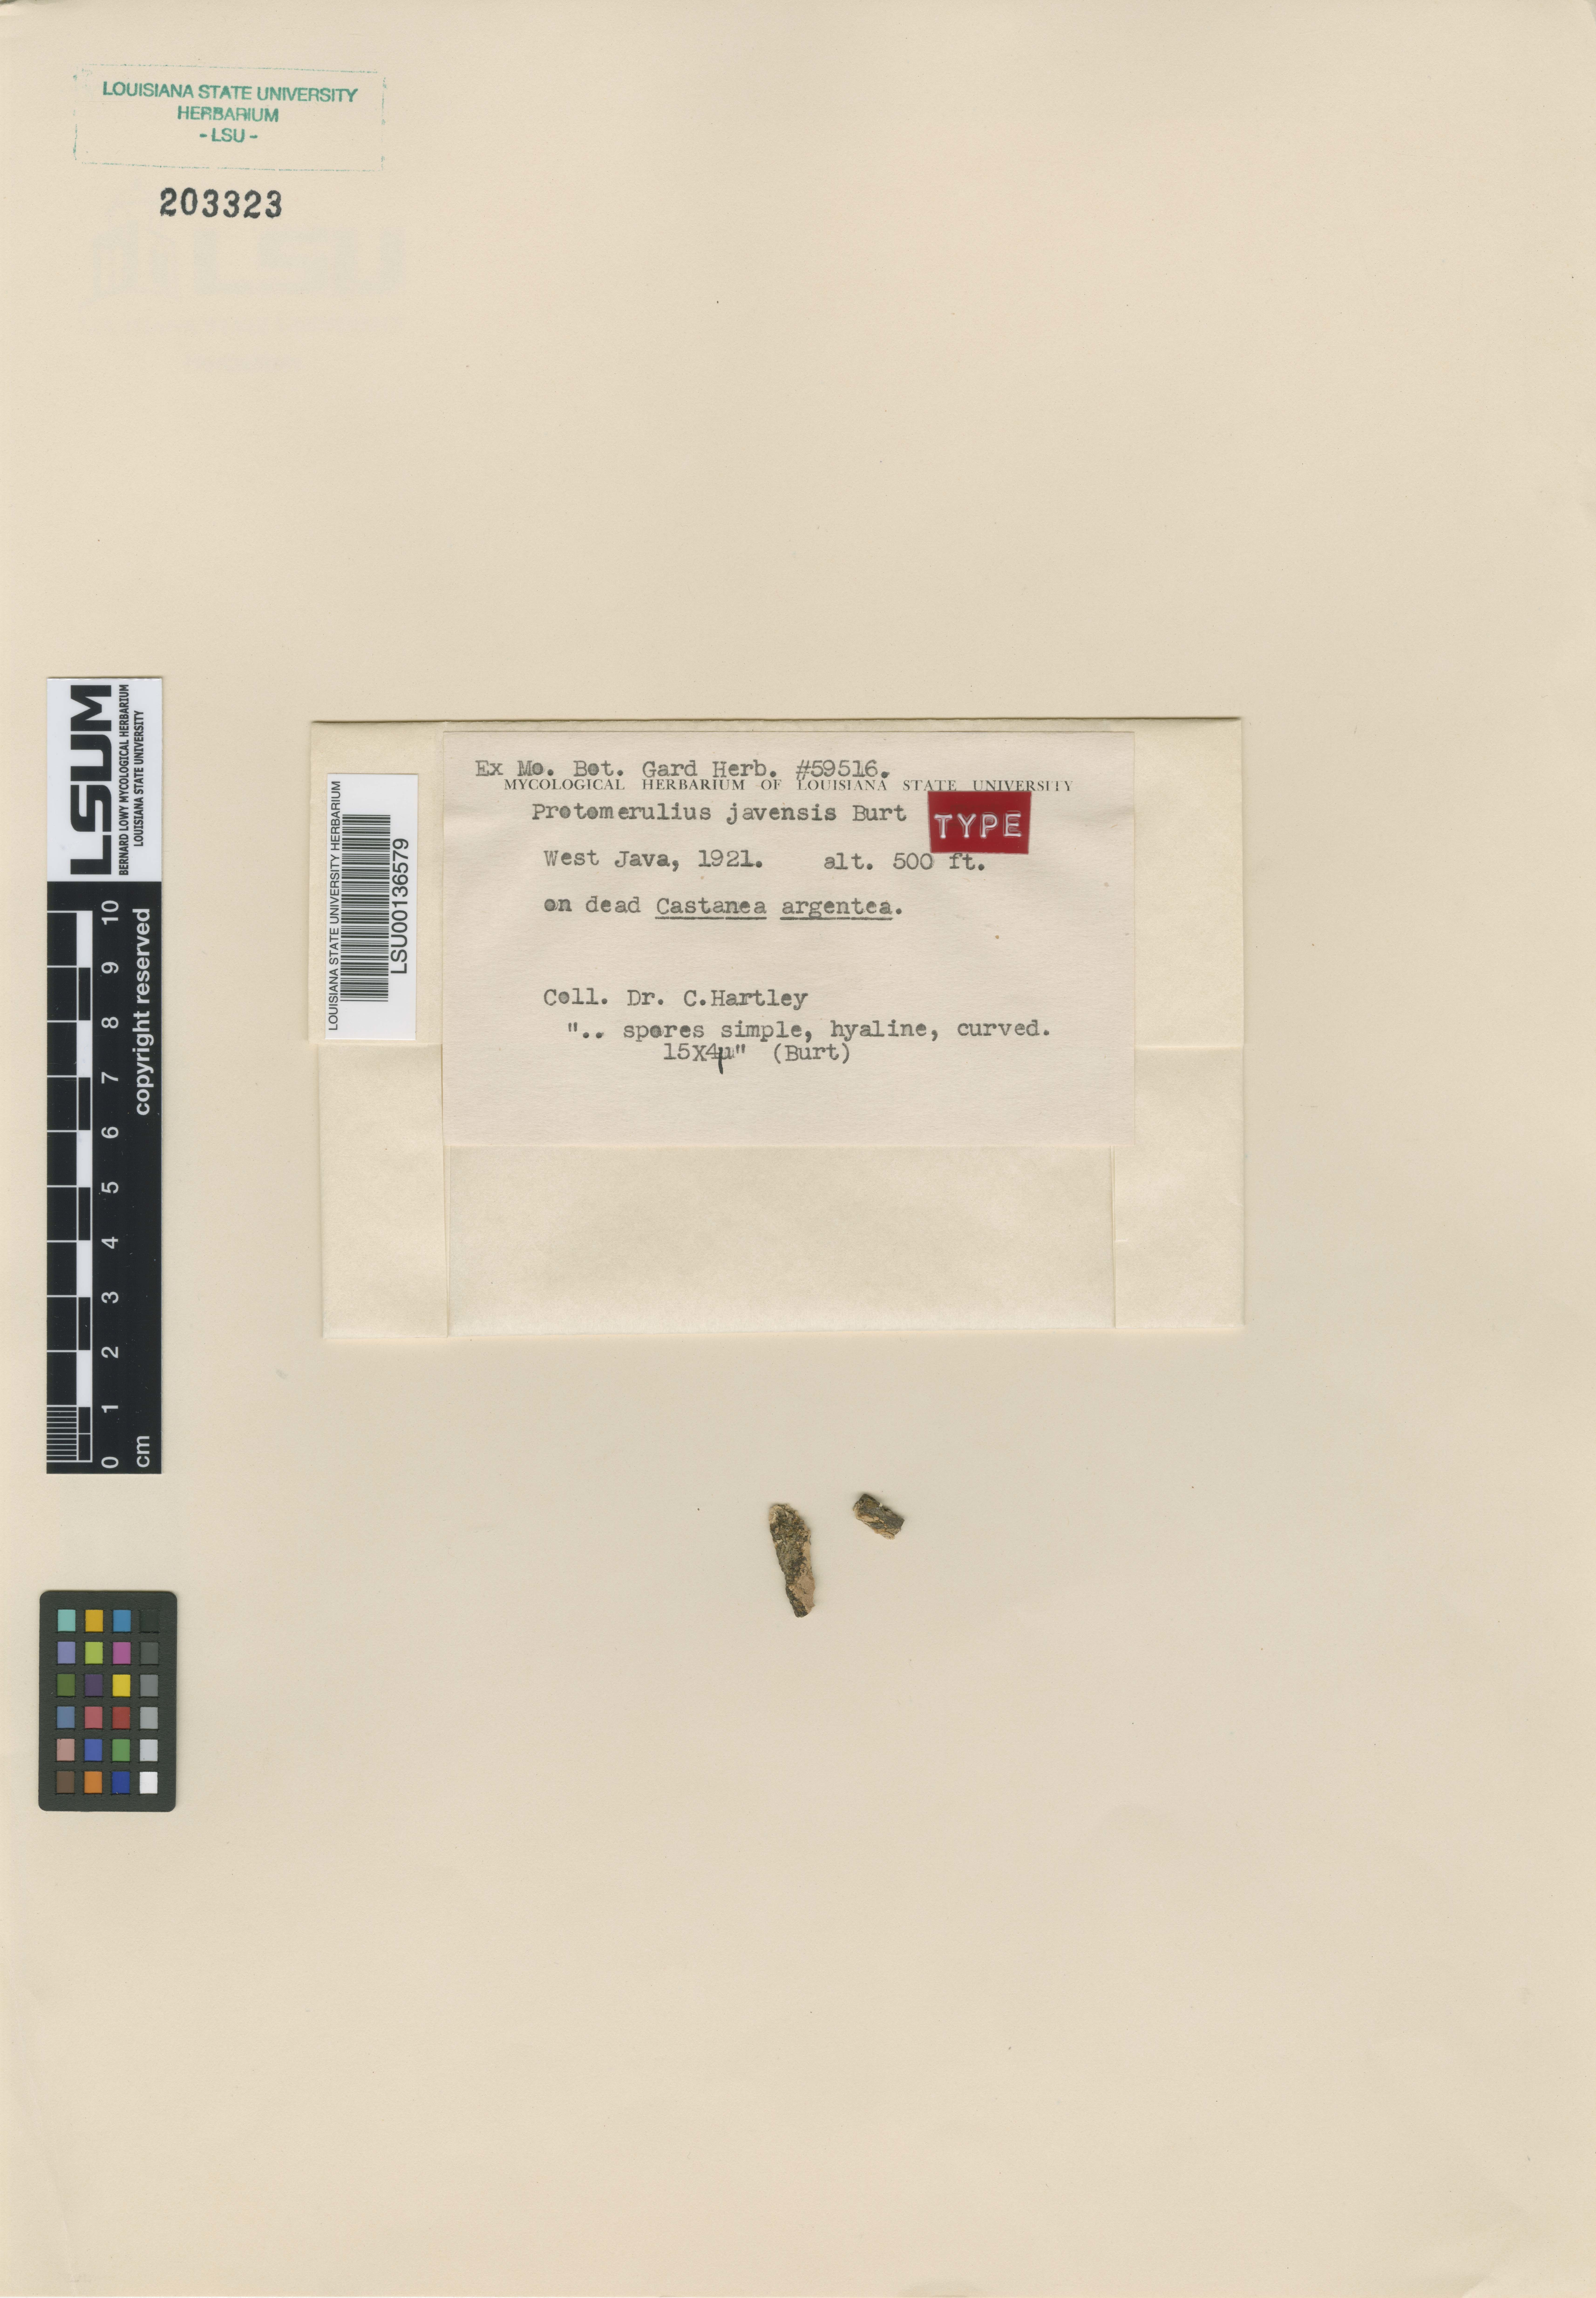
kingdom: Fungi
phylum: Basidiomycota
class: Agaricomycetes
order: Auriculariales
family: Hyaloriaceae
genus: Protomerulius
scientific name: Protomerulius
